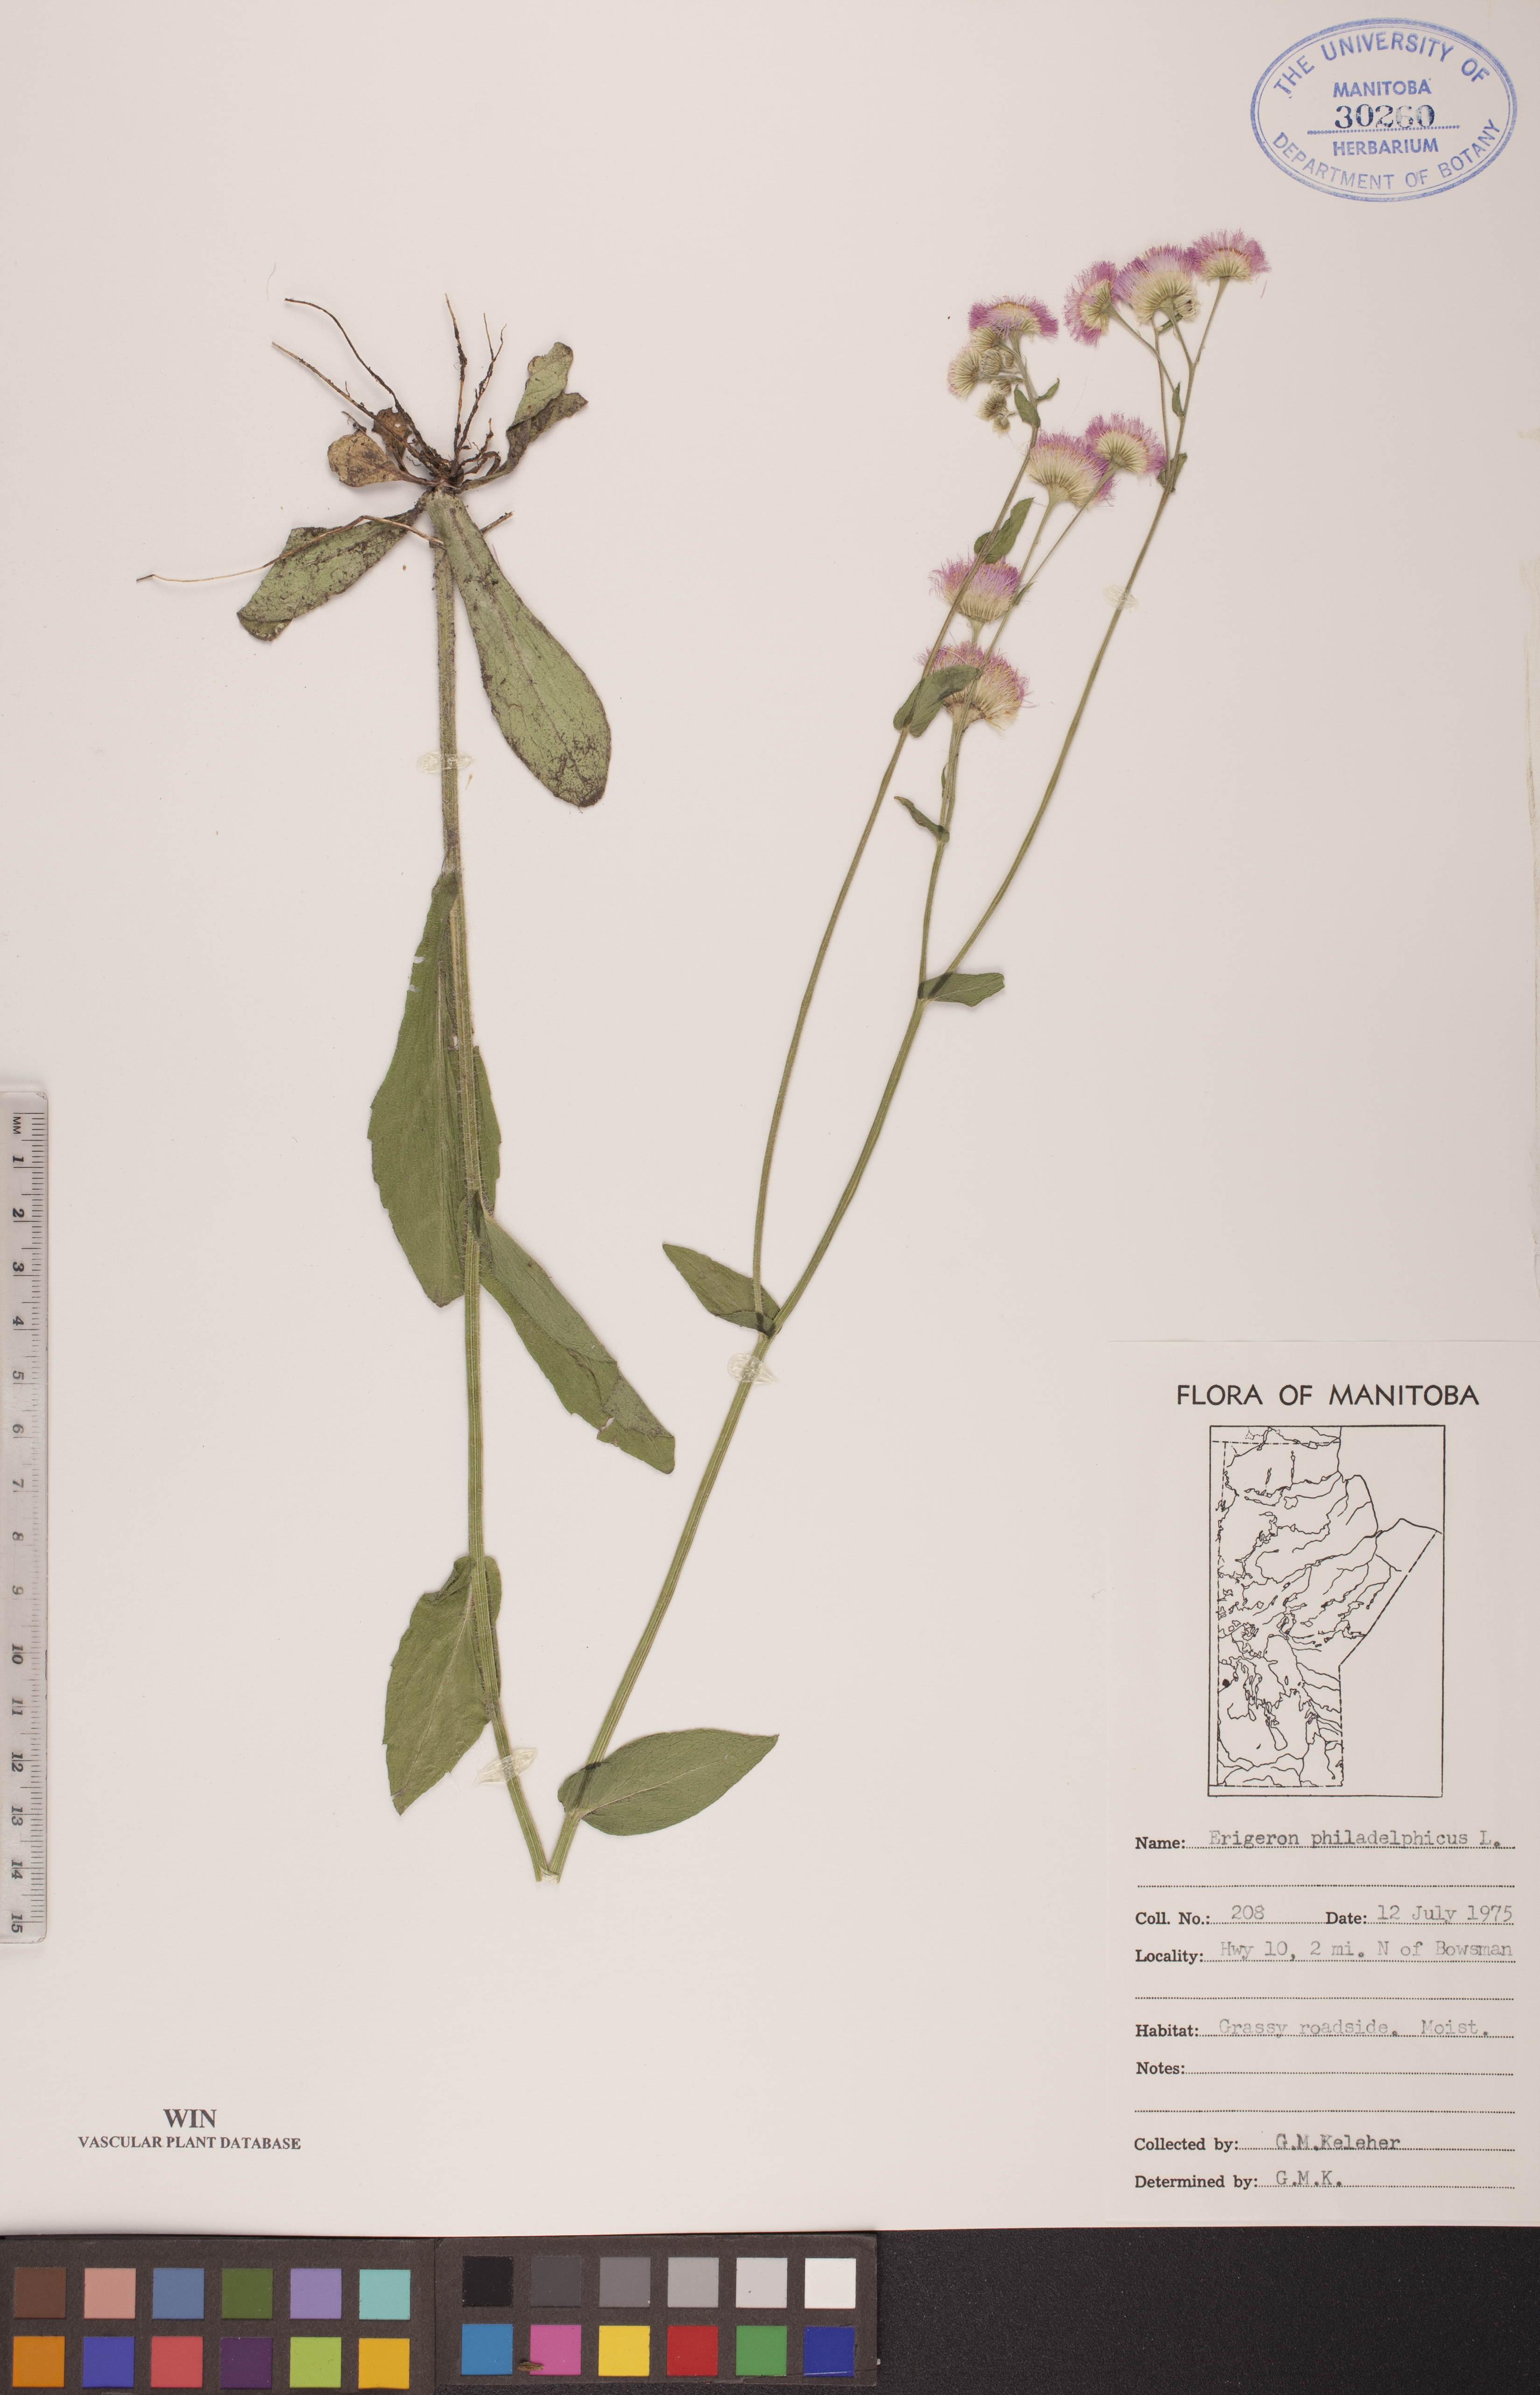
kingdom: Plantae
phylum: Tracheophyta
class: Magnoliopsida
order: Asterales
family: Asteraceae
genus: Erigeron
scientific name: Erigeron philadelphicus
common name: Robin's-plantain
